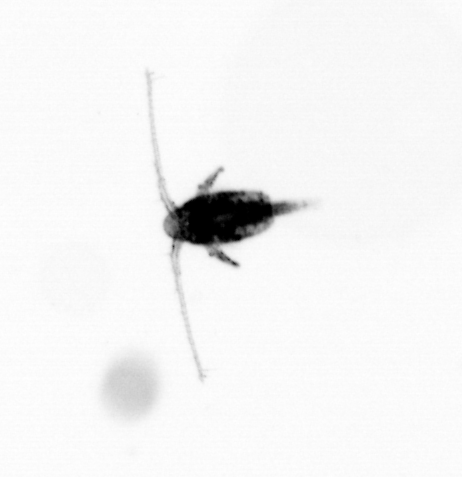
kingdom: Animalia
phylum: Arthropoda
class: Copepoda
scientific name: Copepoda
